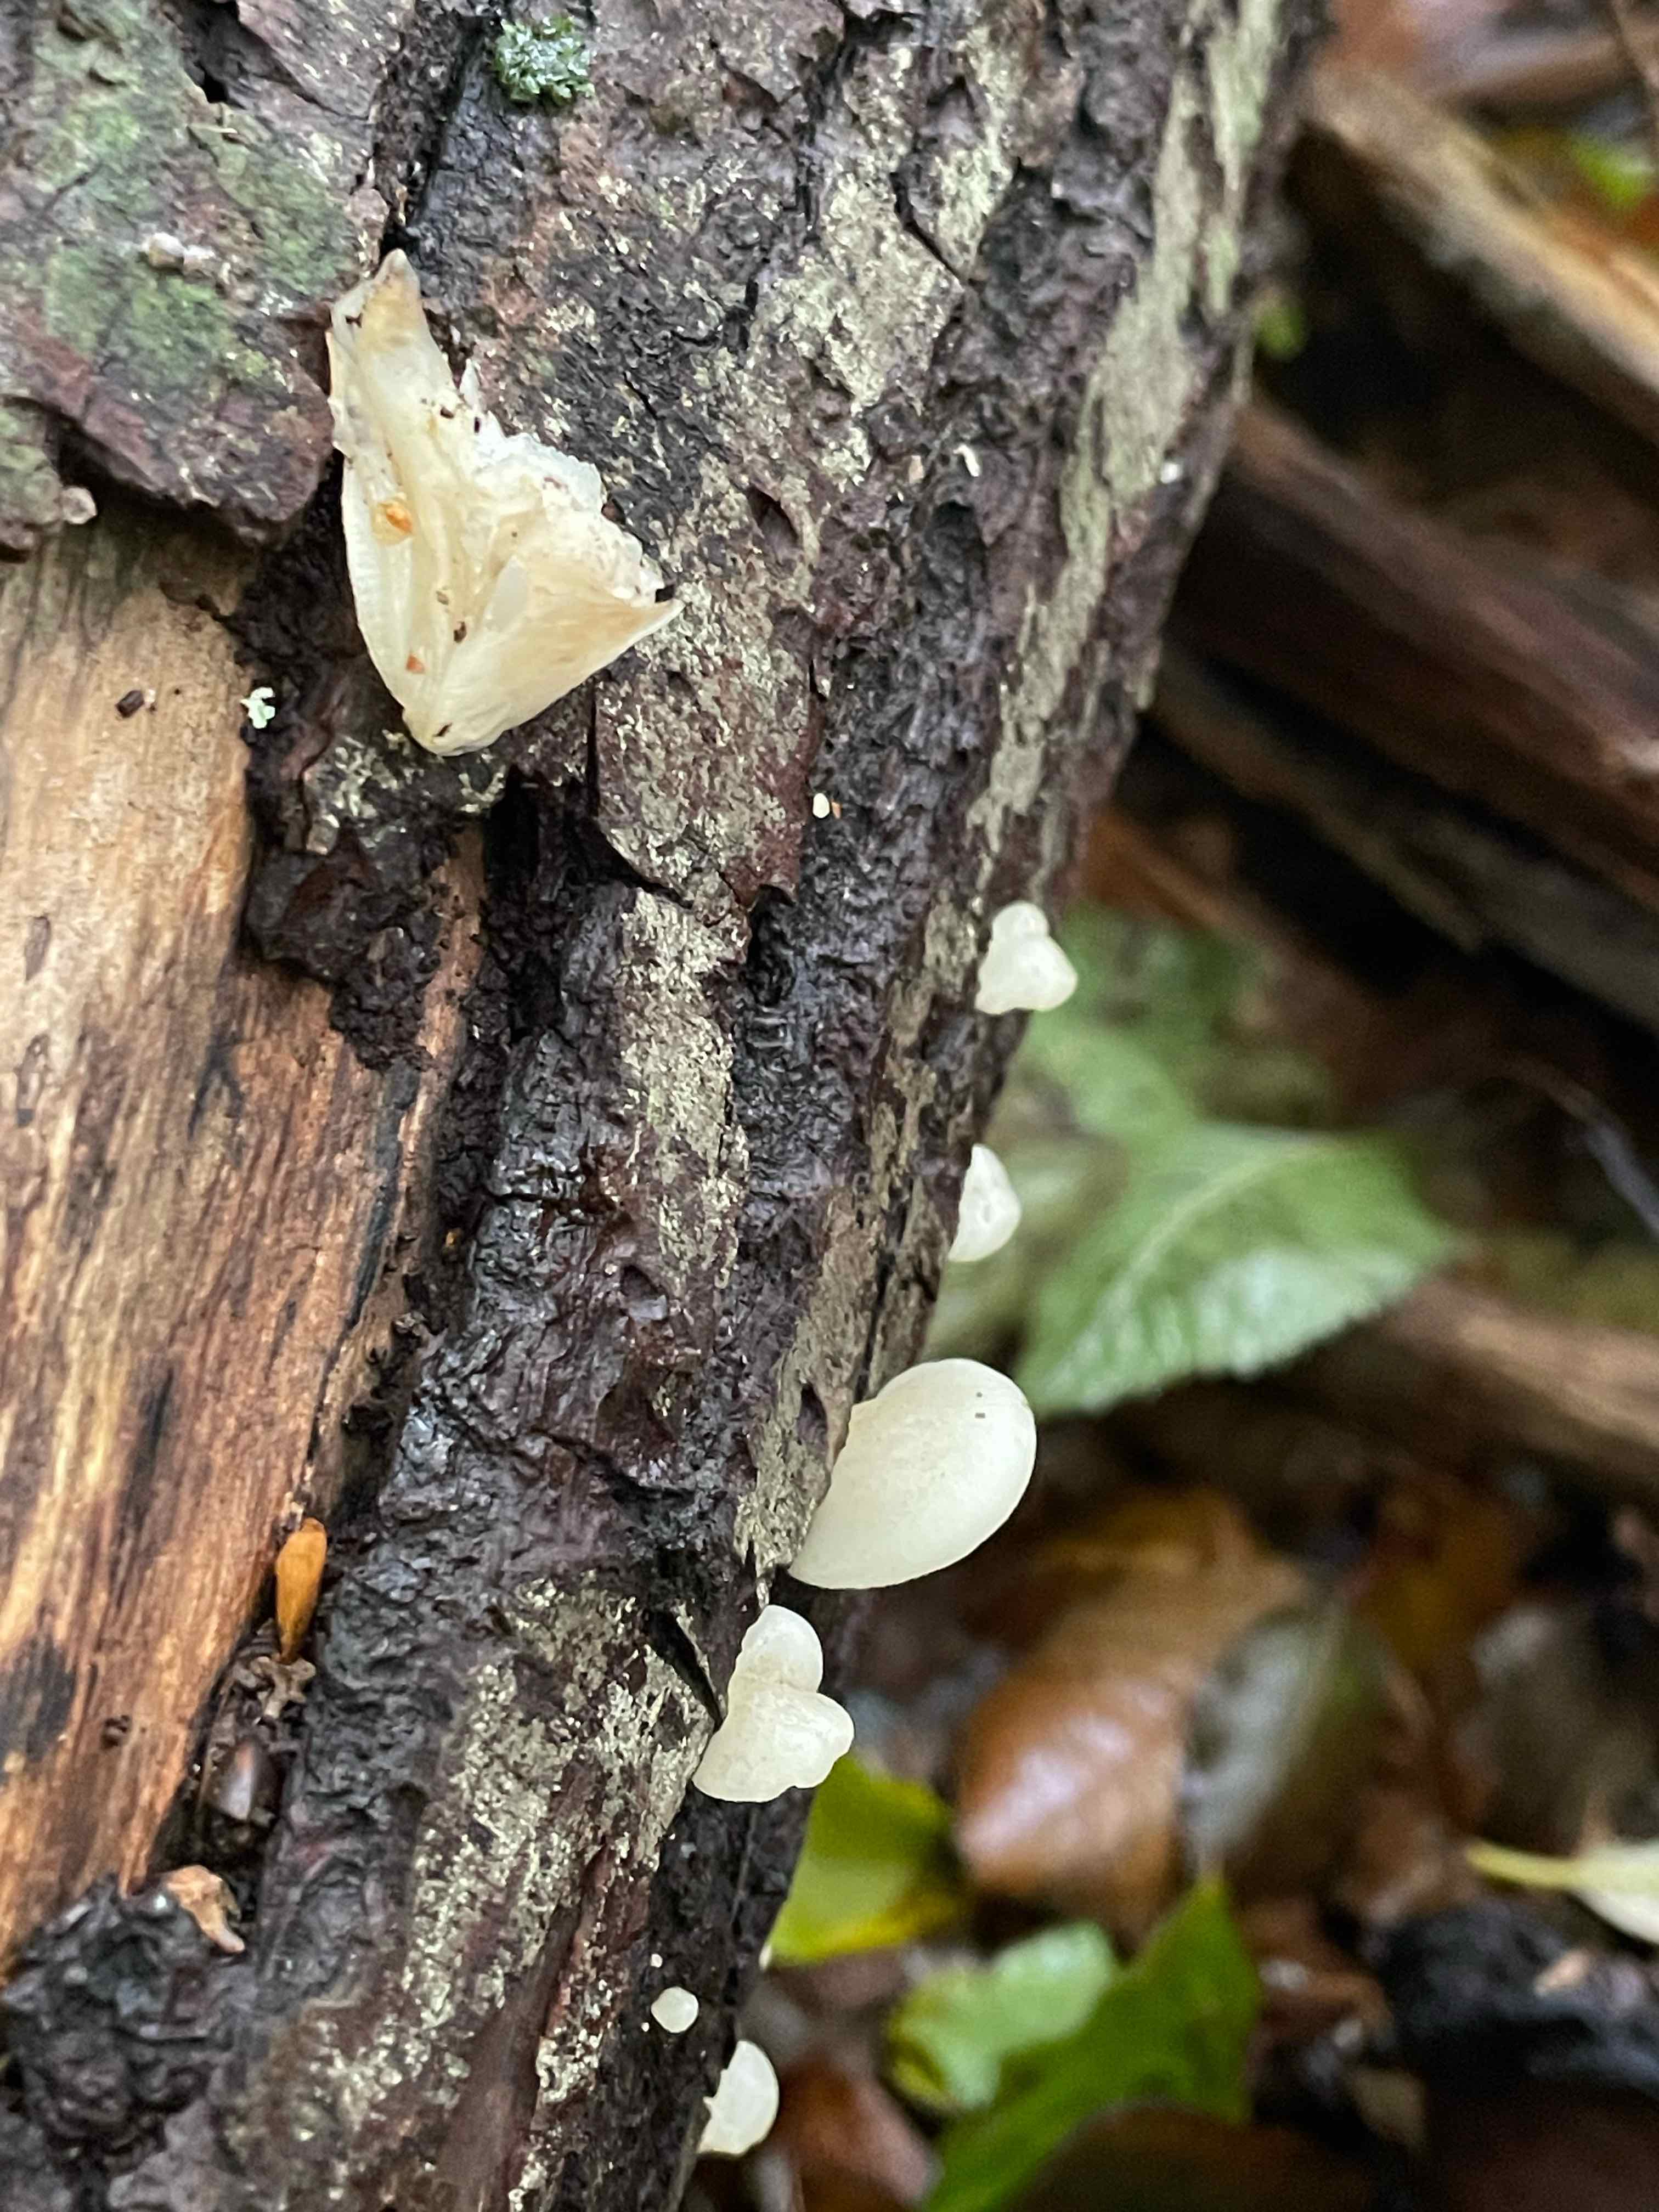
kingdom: Fungi
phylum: Basidiomycota
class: Agaricomycetes
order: Agaricales
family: Crepidotaceae
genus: Crepidotus
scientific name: Crepidotus mollis
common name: blød muslingesvamp
